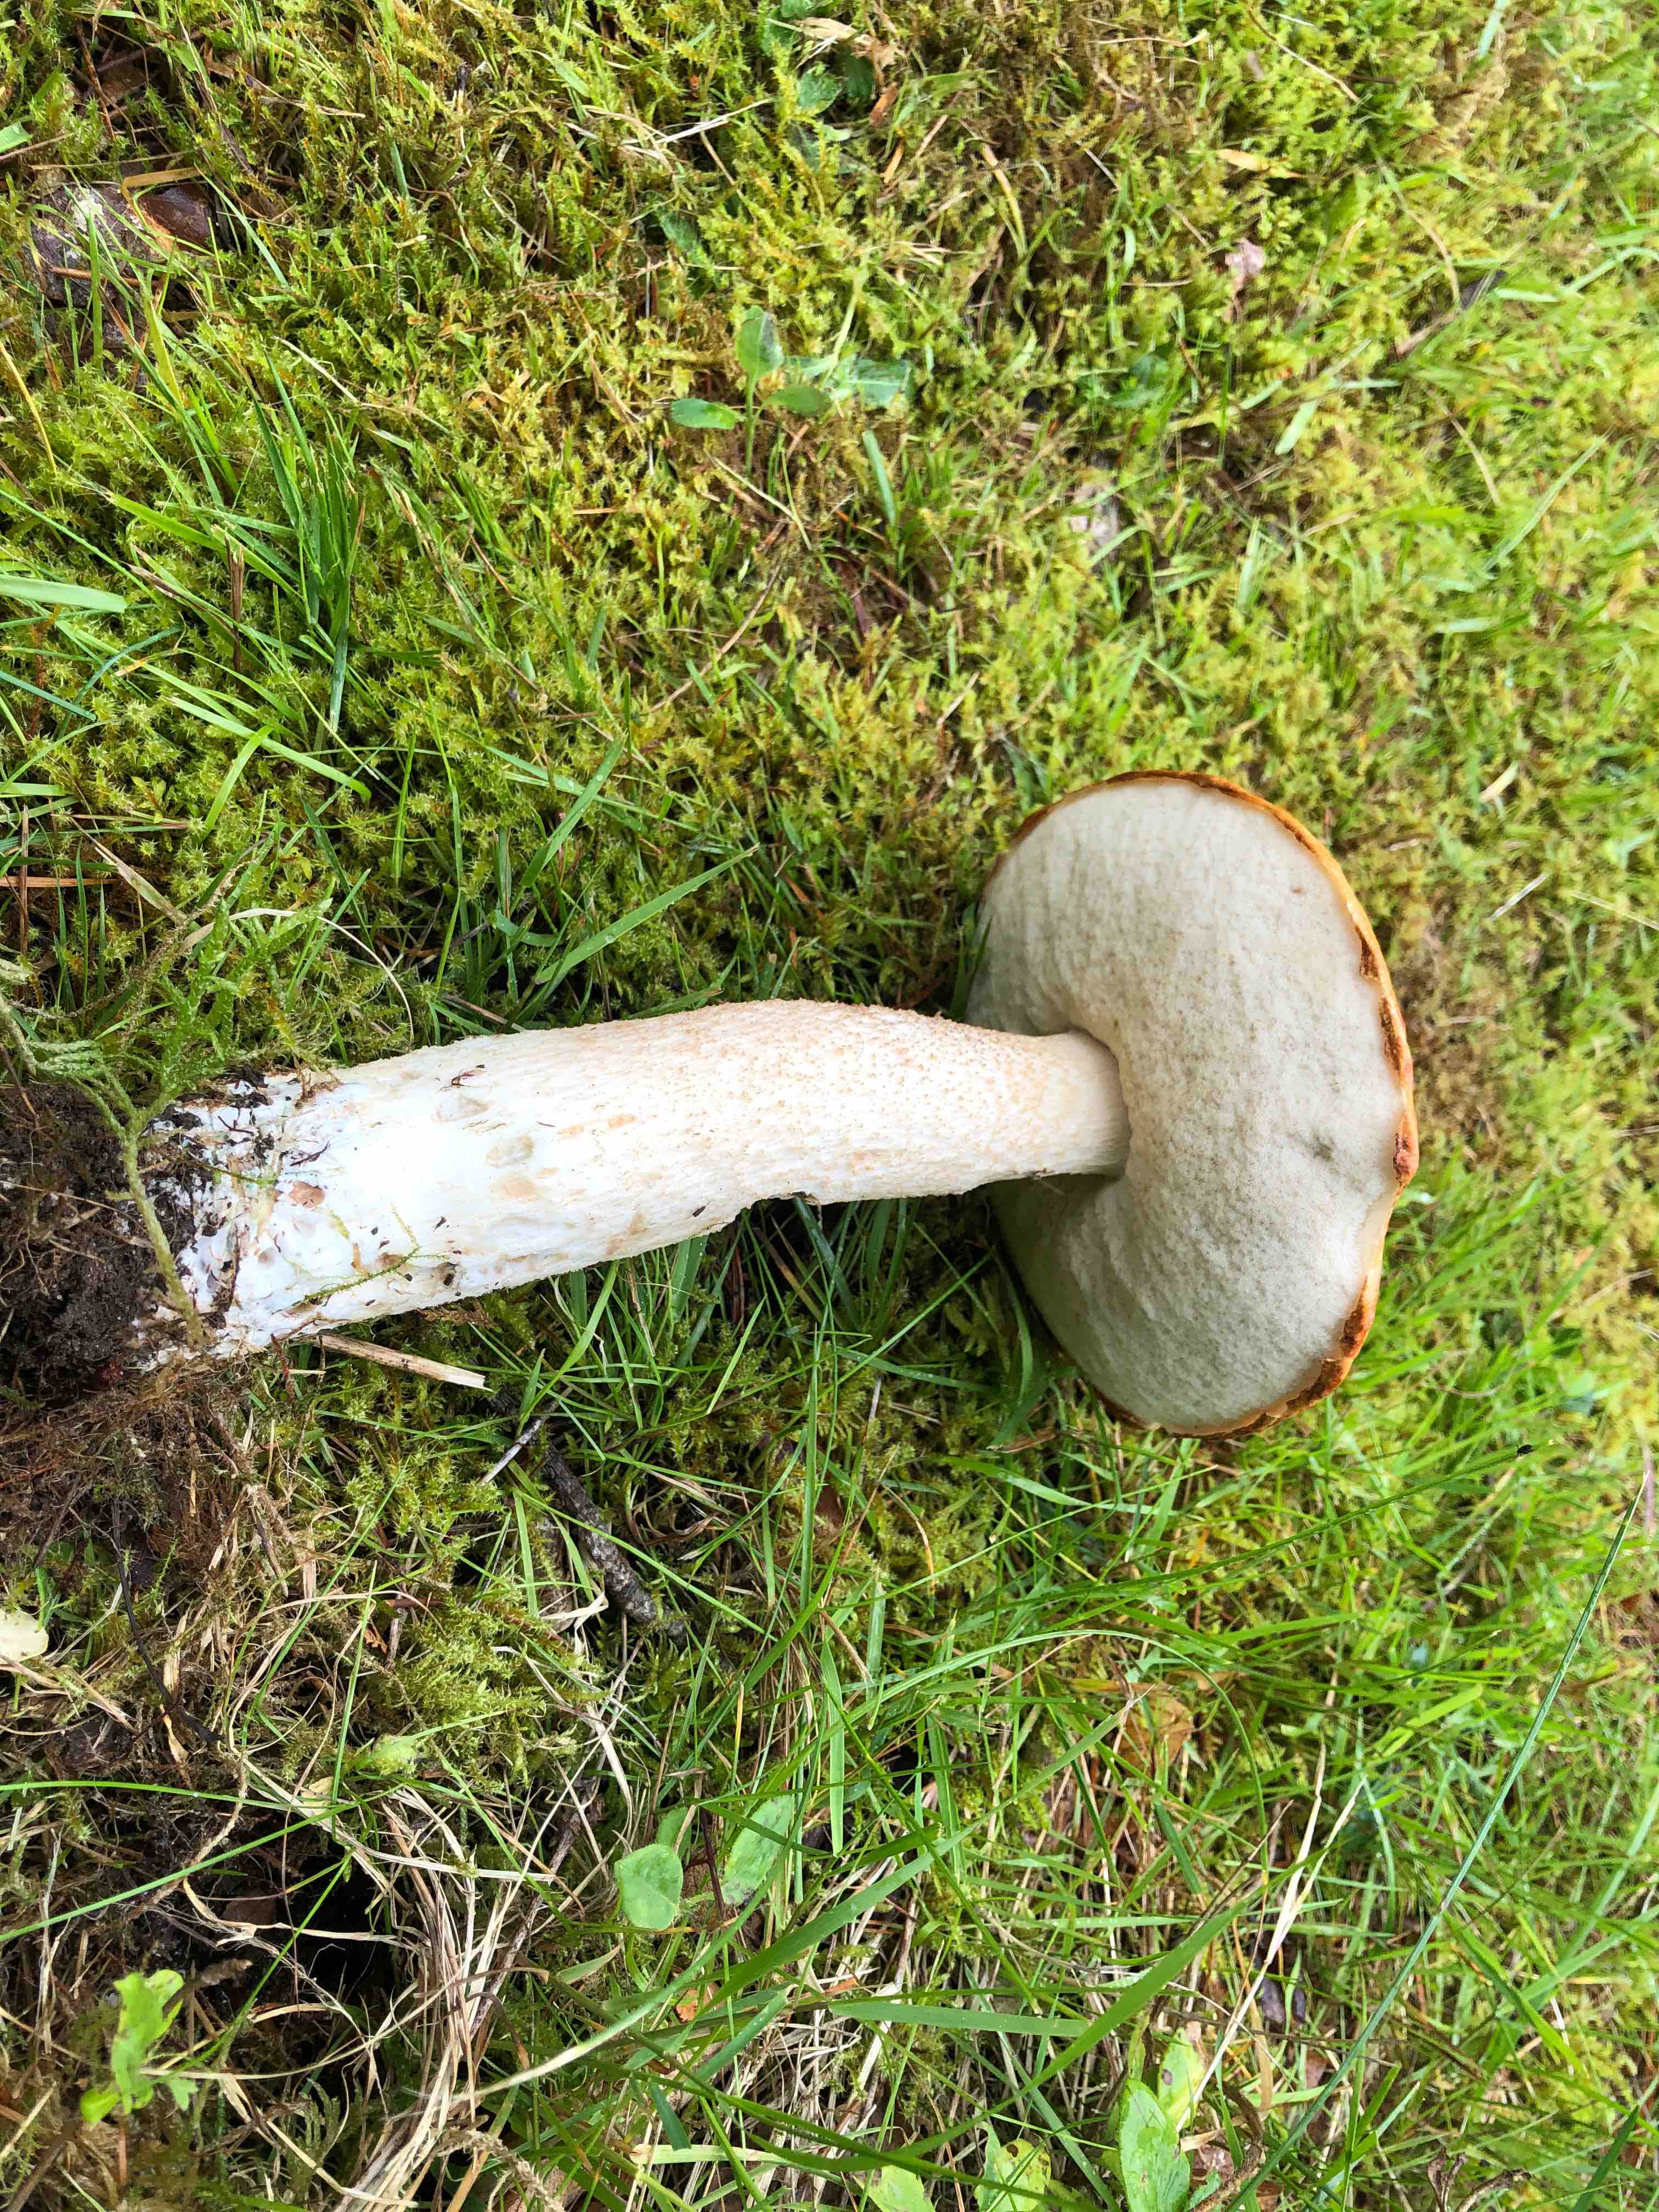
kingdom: Fungi
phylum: Basidiomycota
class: Agaricomycetes
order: Boletales
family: Boletaceae
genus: Leccinum
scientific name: Leccinum albostipitatum
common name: aspe-skælrørhat
